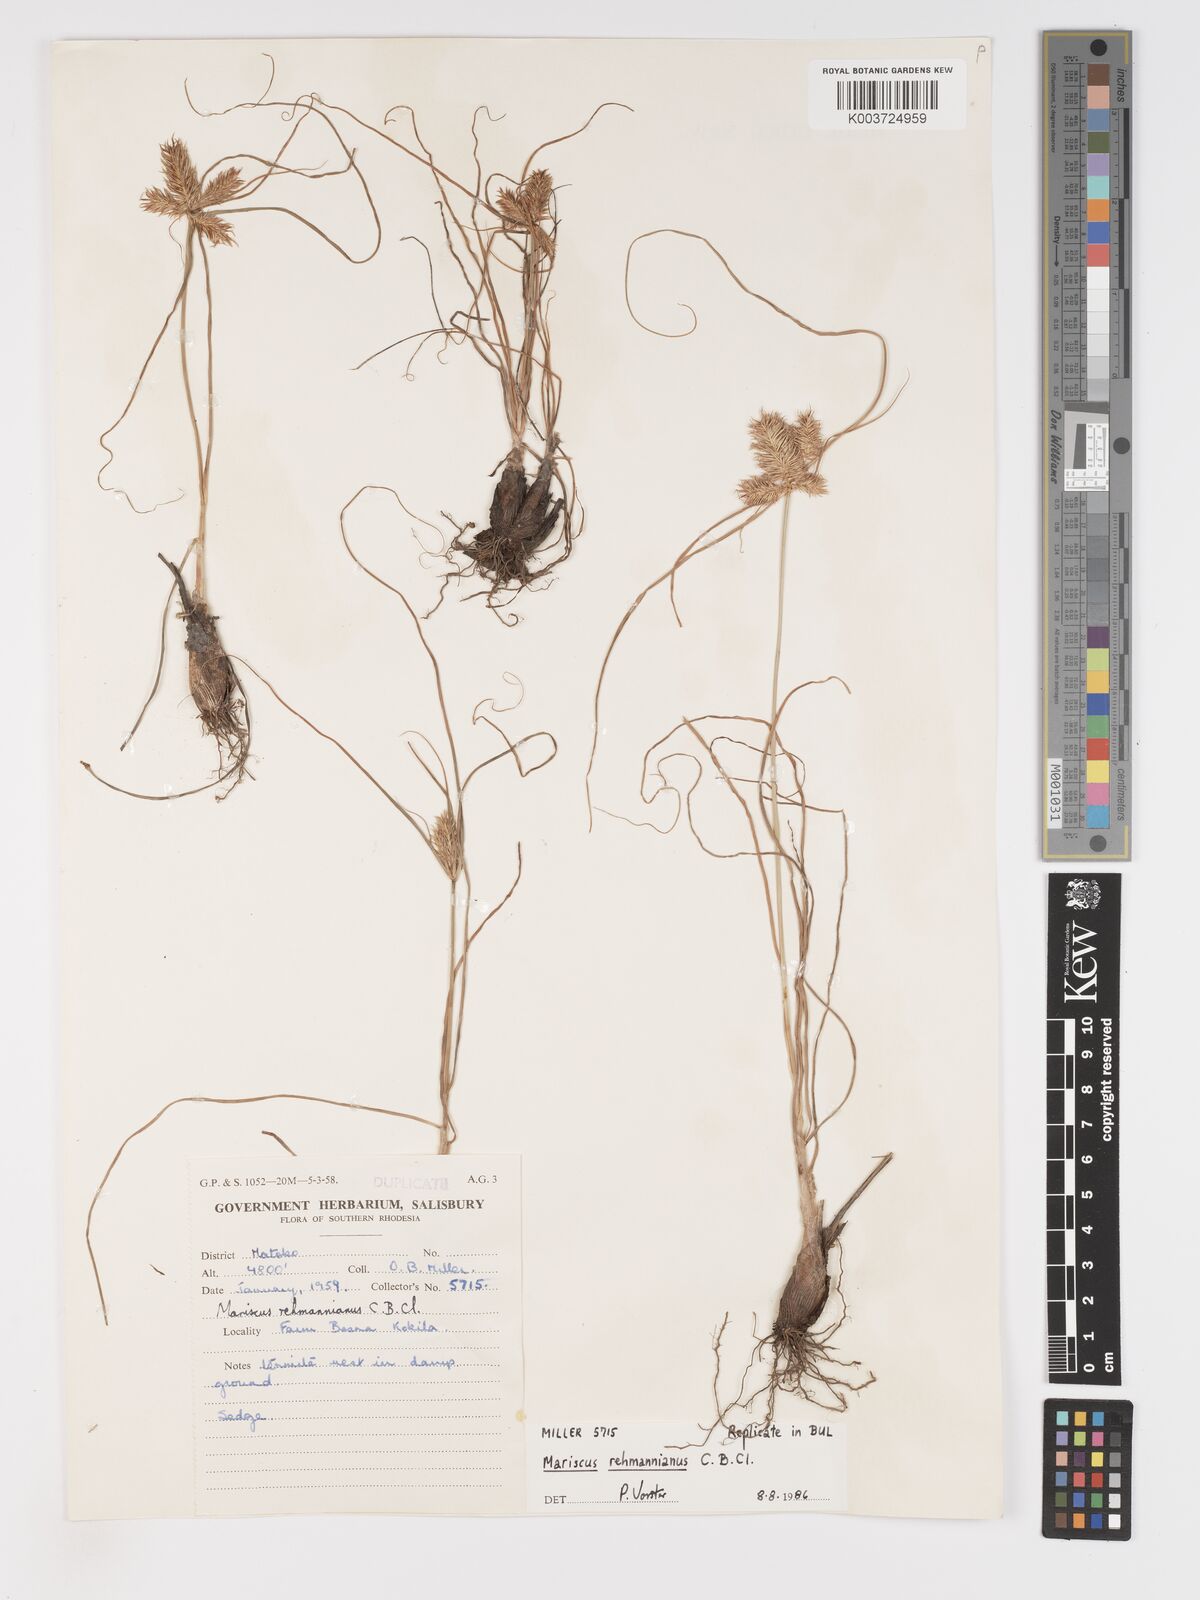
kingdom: Plantae
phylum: Tracheophyta
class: Liliopsida
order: Poales
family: Cyperaceae
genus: Cyperus
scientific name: Cyperus indecorus
